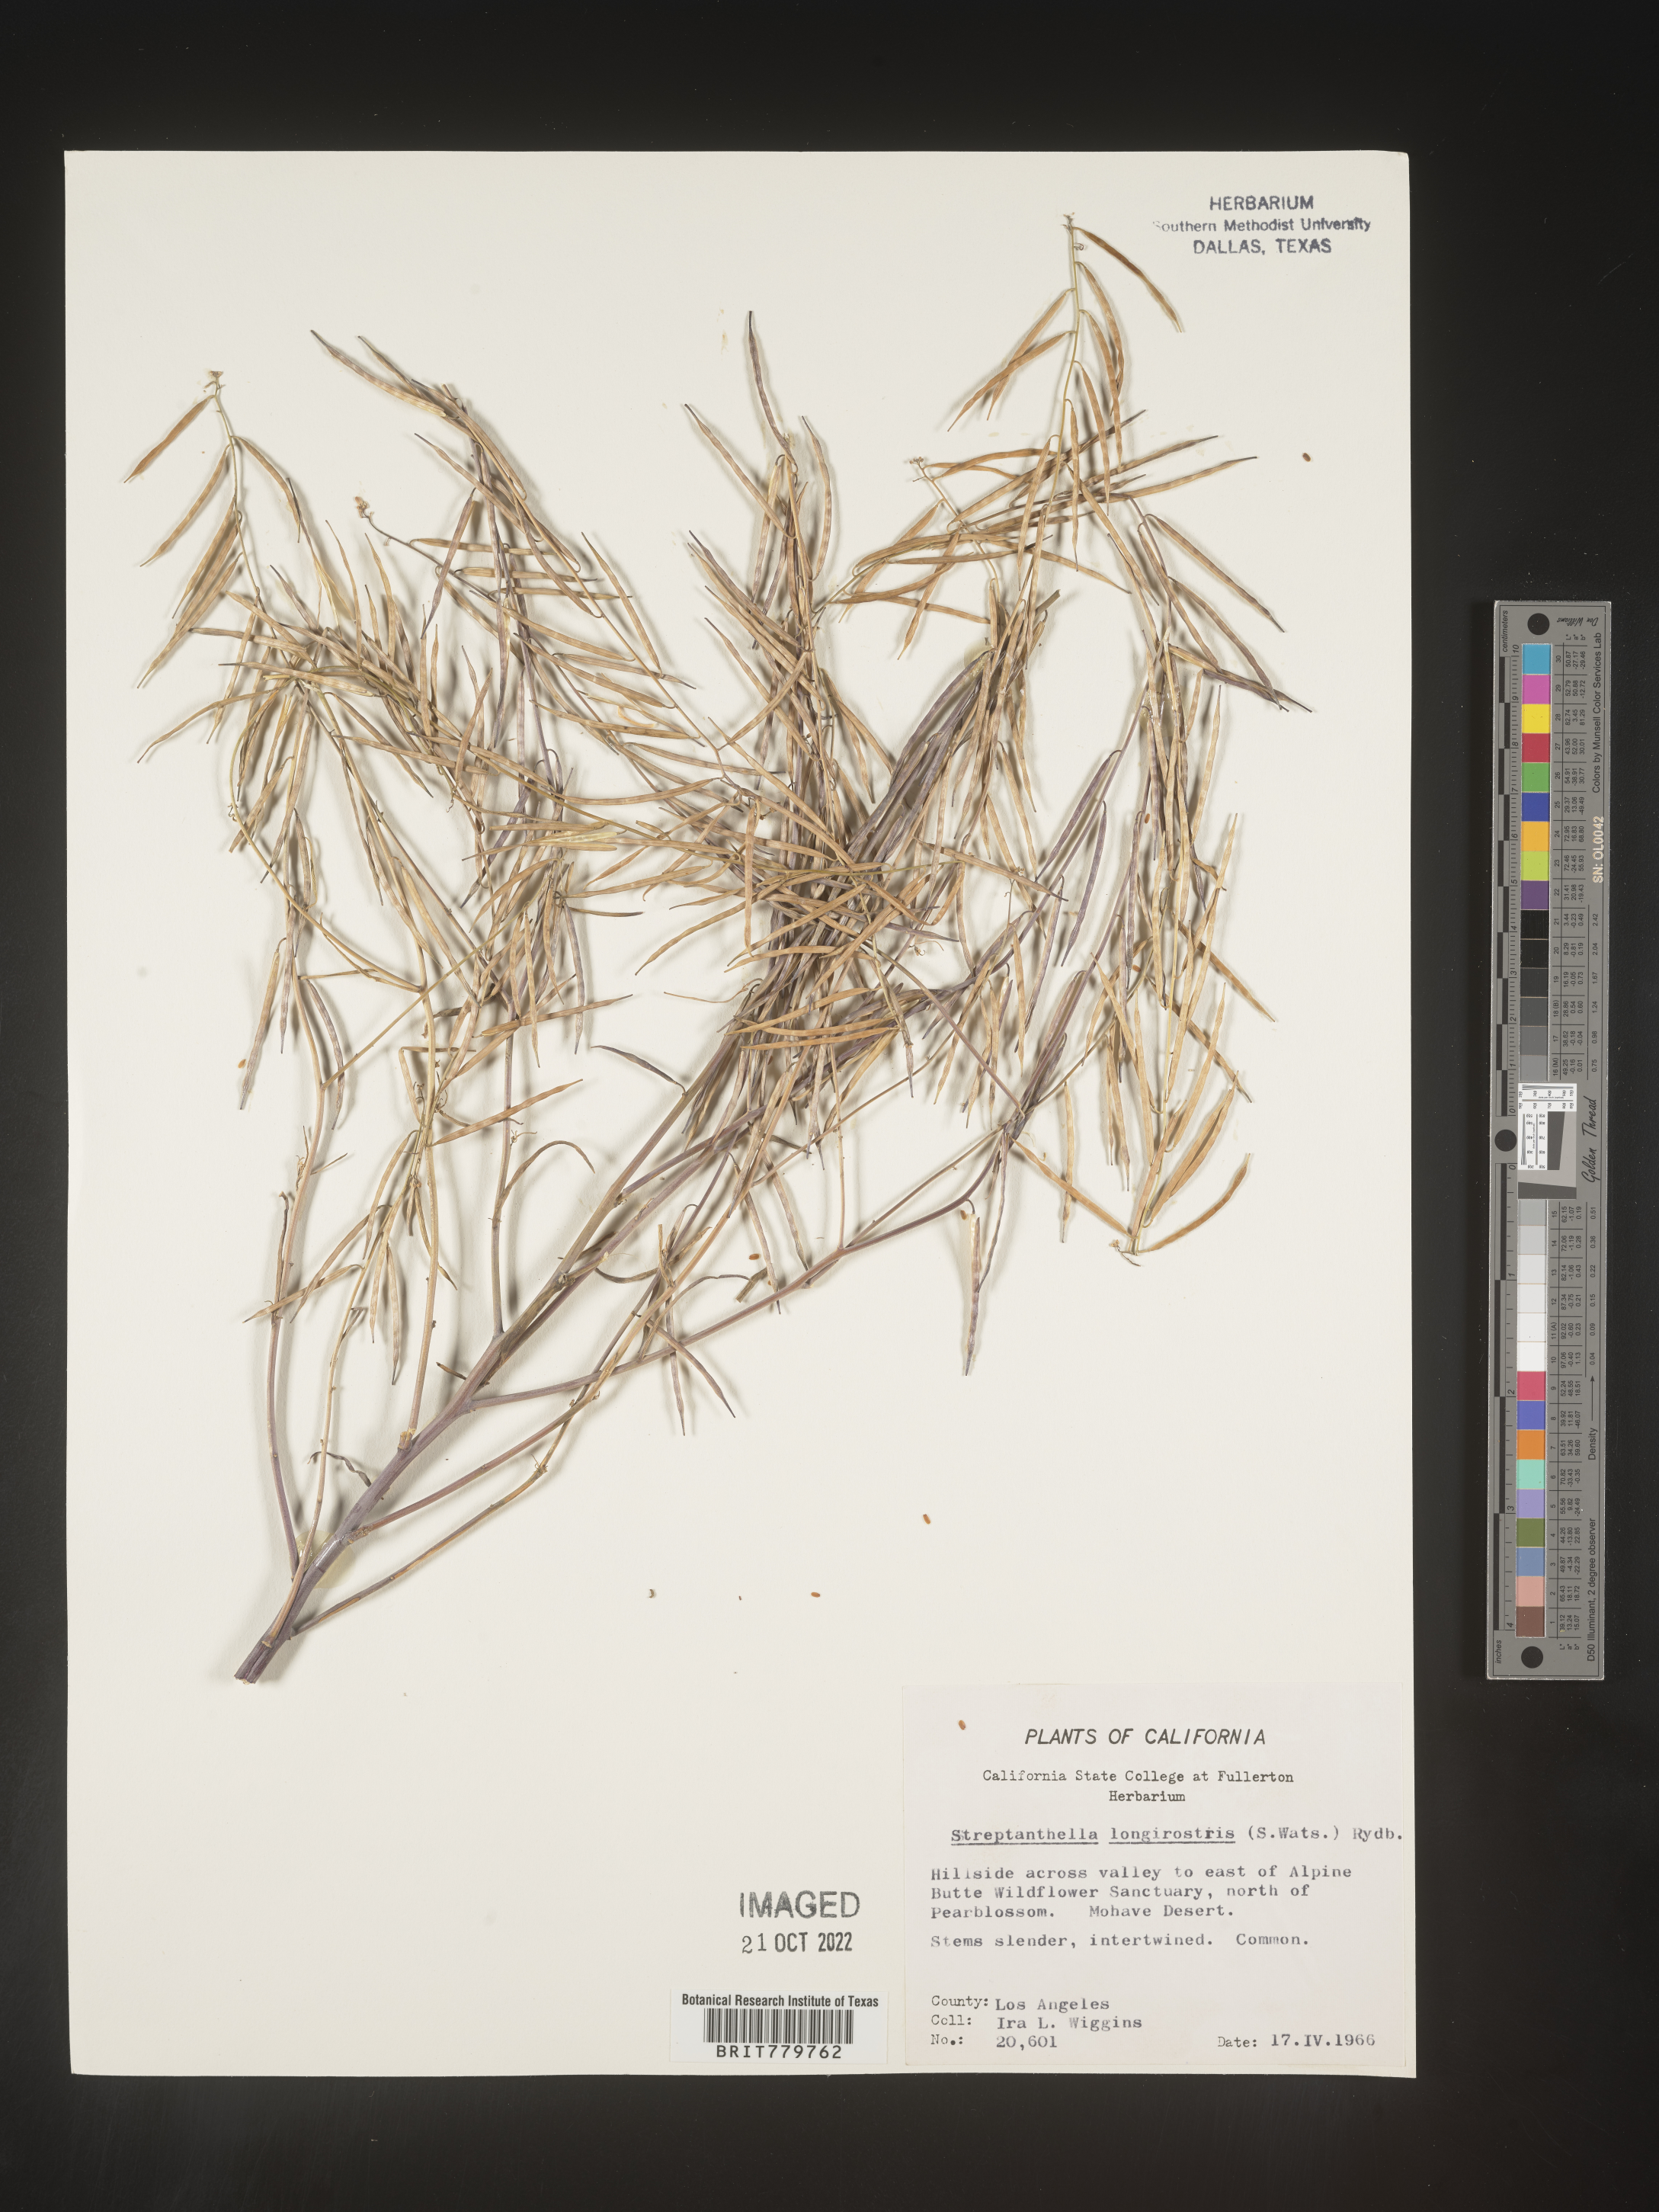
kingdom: Plantae
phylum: Tracheophyta
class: Magnoliopsida
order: Brassicales
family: Brassicaceae
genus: Streptanthus
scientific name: Streptanthus
